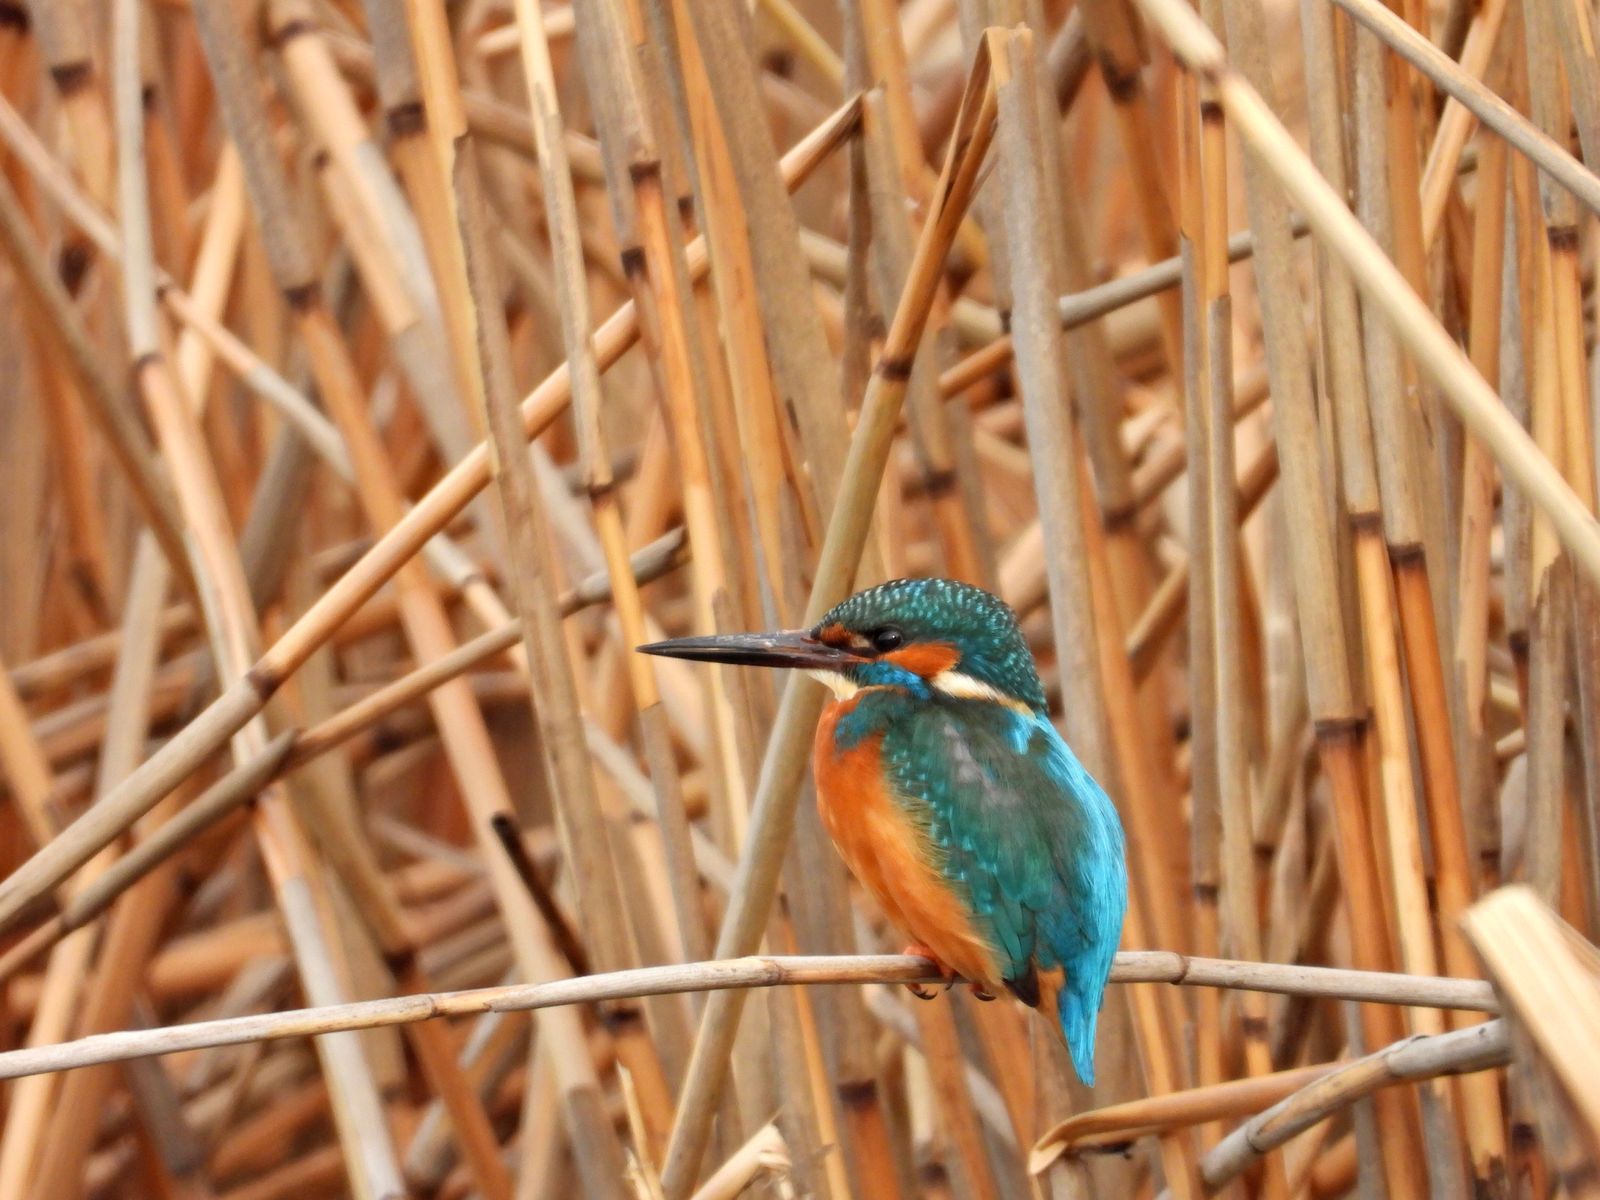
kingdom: Animalia
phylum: Chordata
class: Aves
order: Coraciiformes
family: Alcedinidae
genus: Alcedo
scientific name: Alcedo atthis
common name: Common kingfisher
